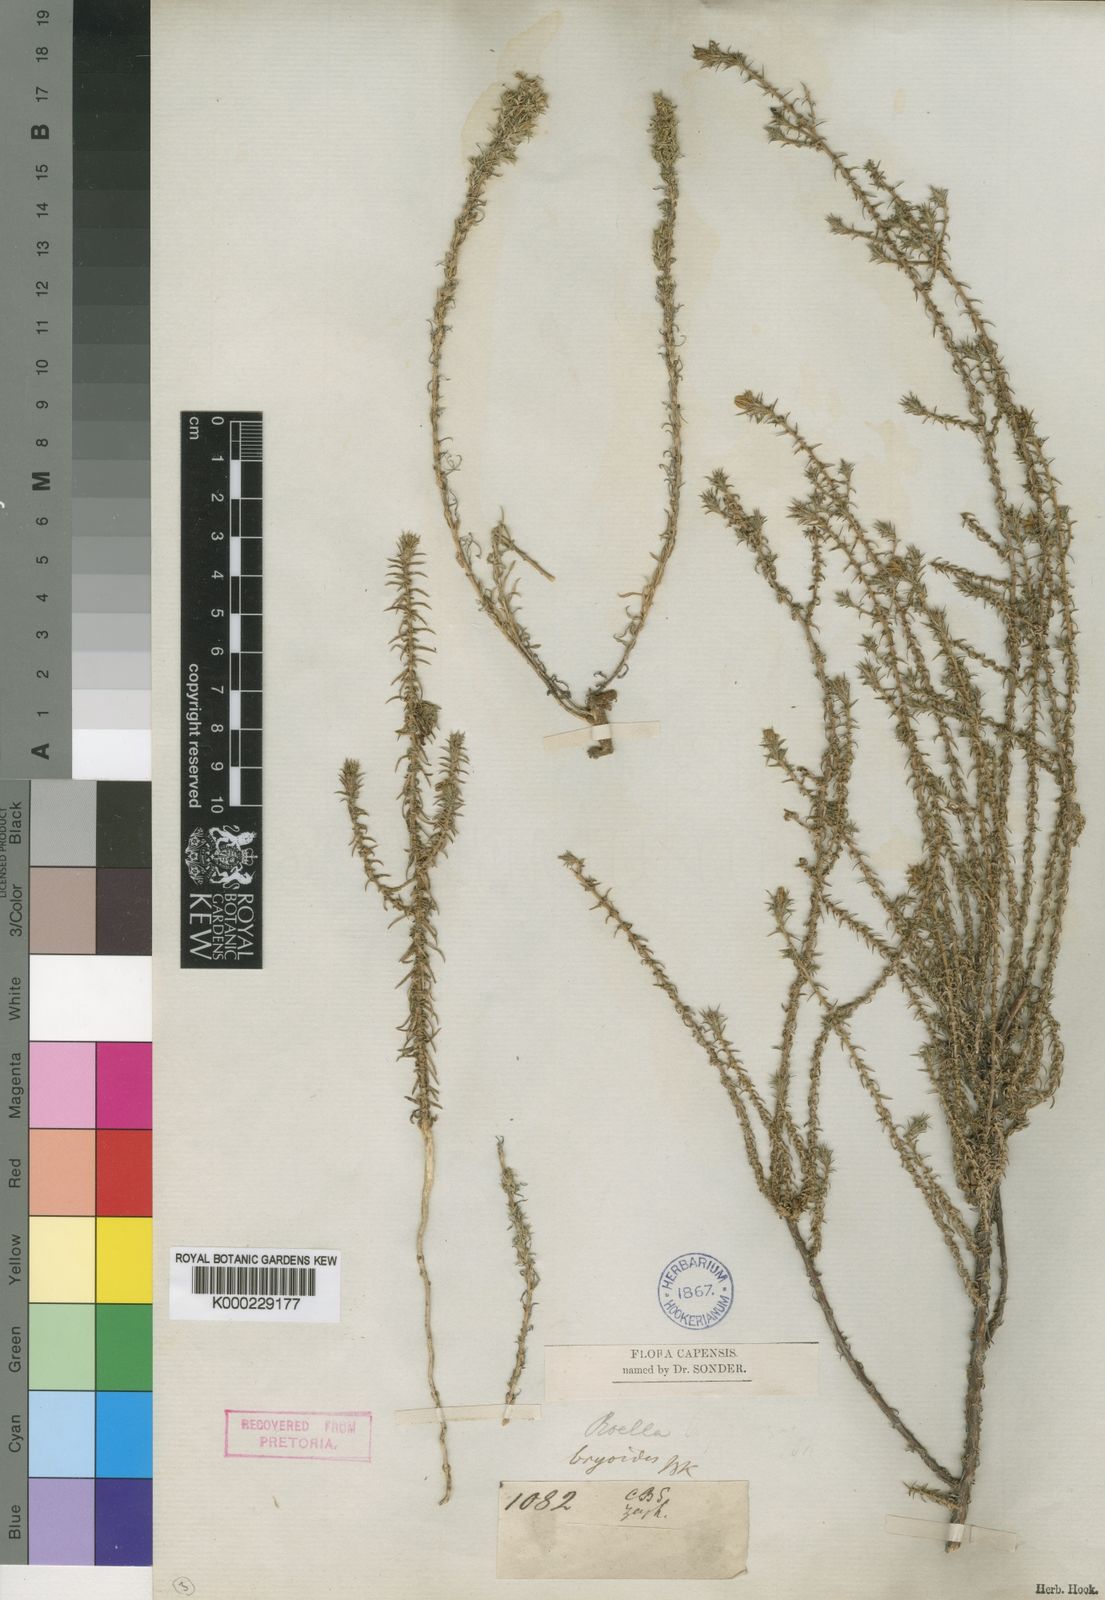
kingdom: Plantae
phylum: Tracheophyta
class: Magnoliopsida
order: Asterales
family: Campanulaceae
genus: Roella
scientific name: Roella bryoides
